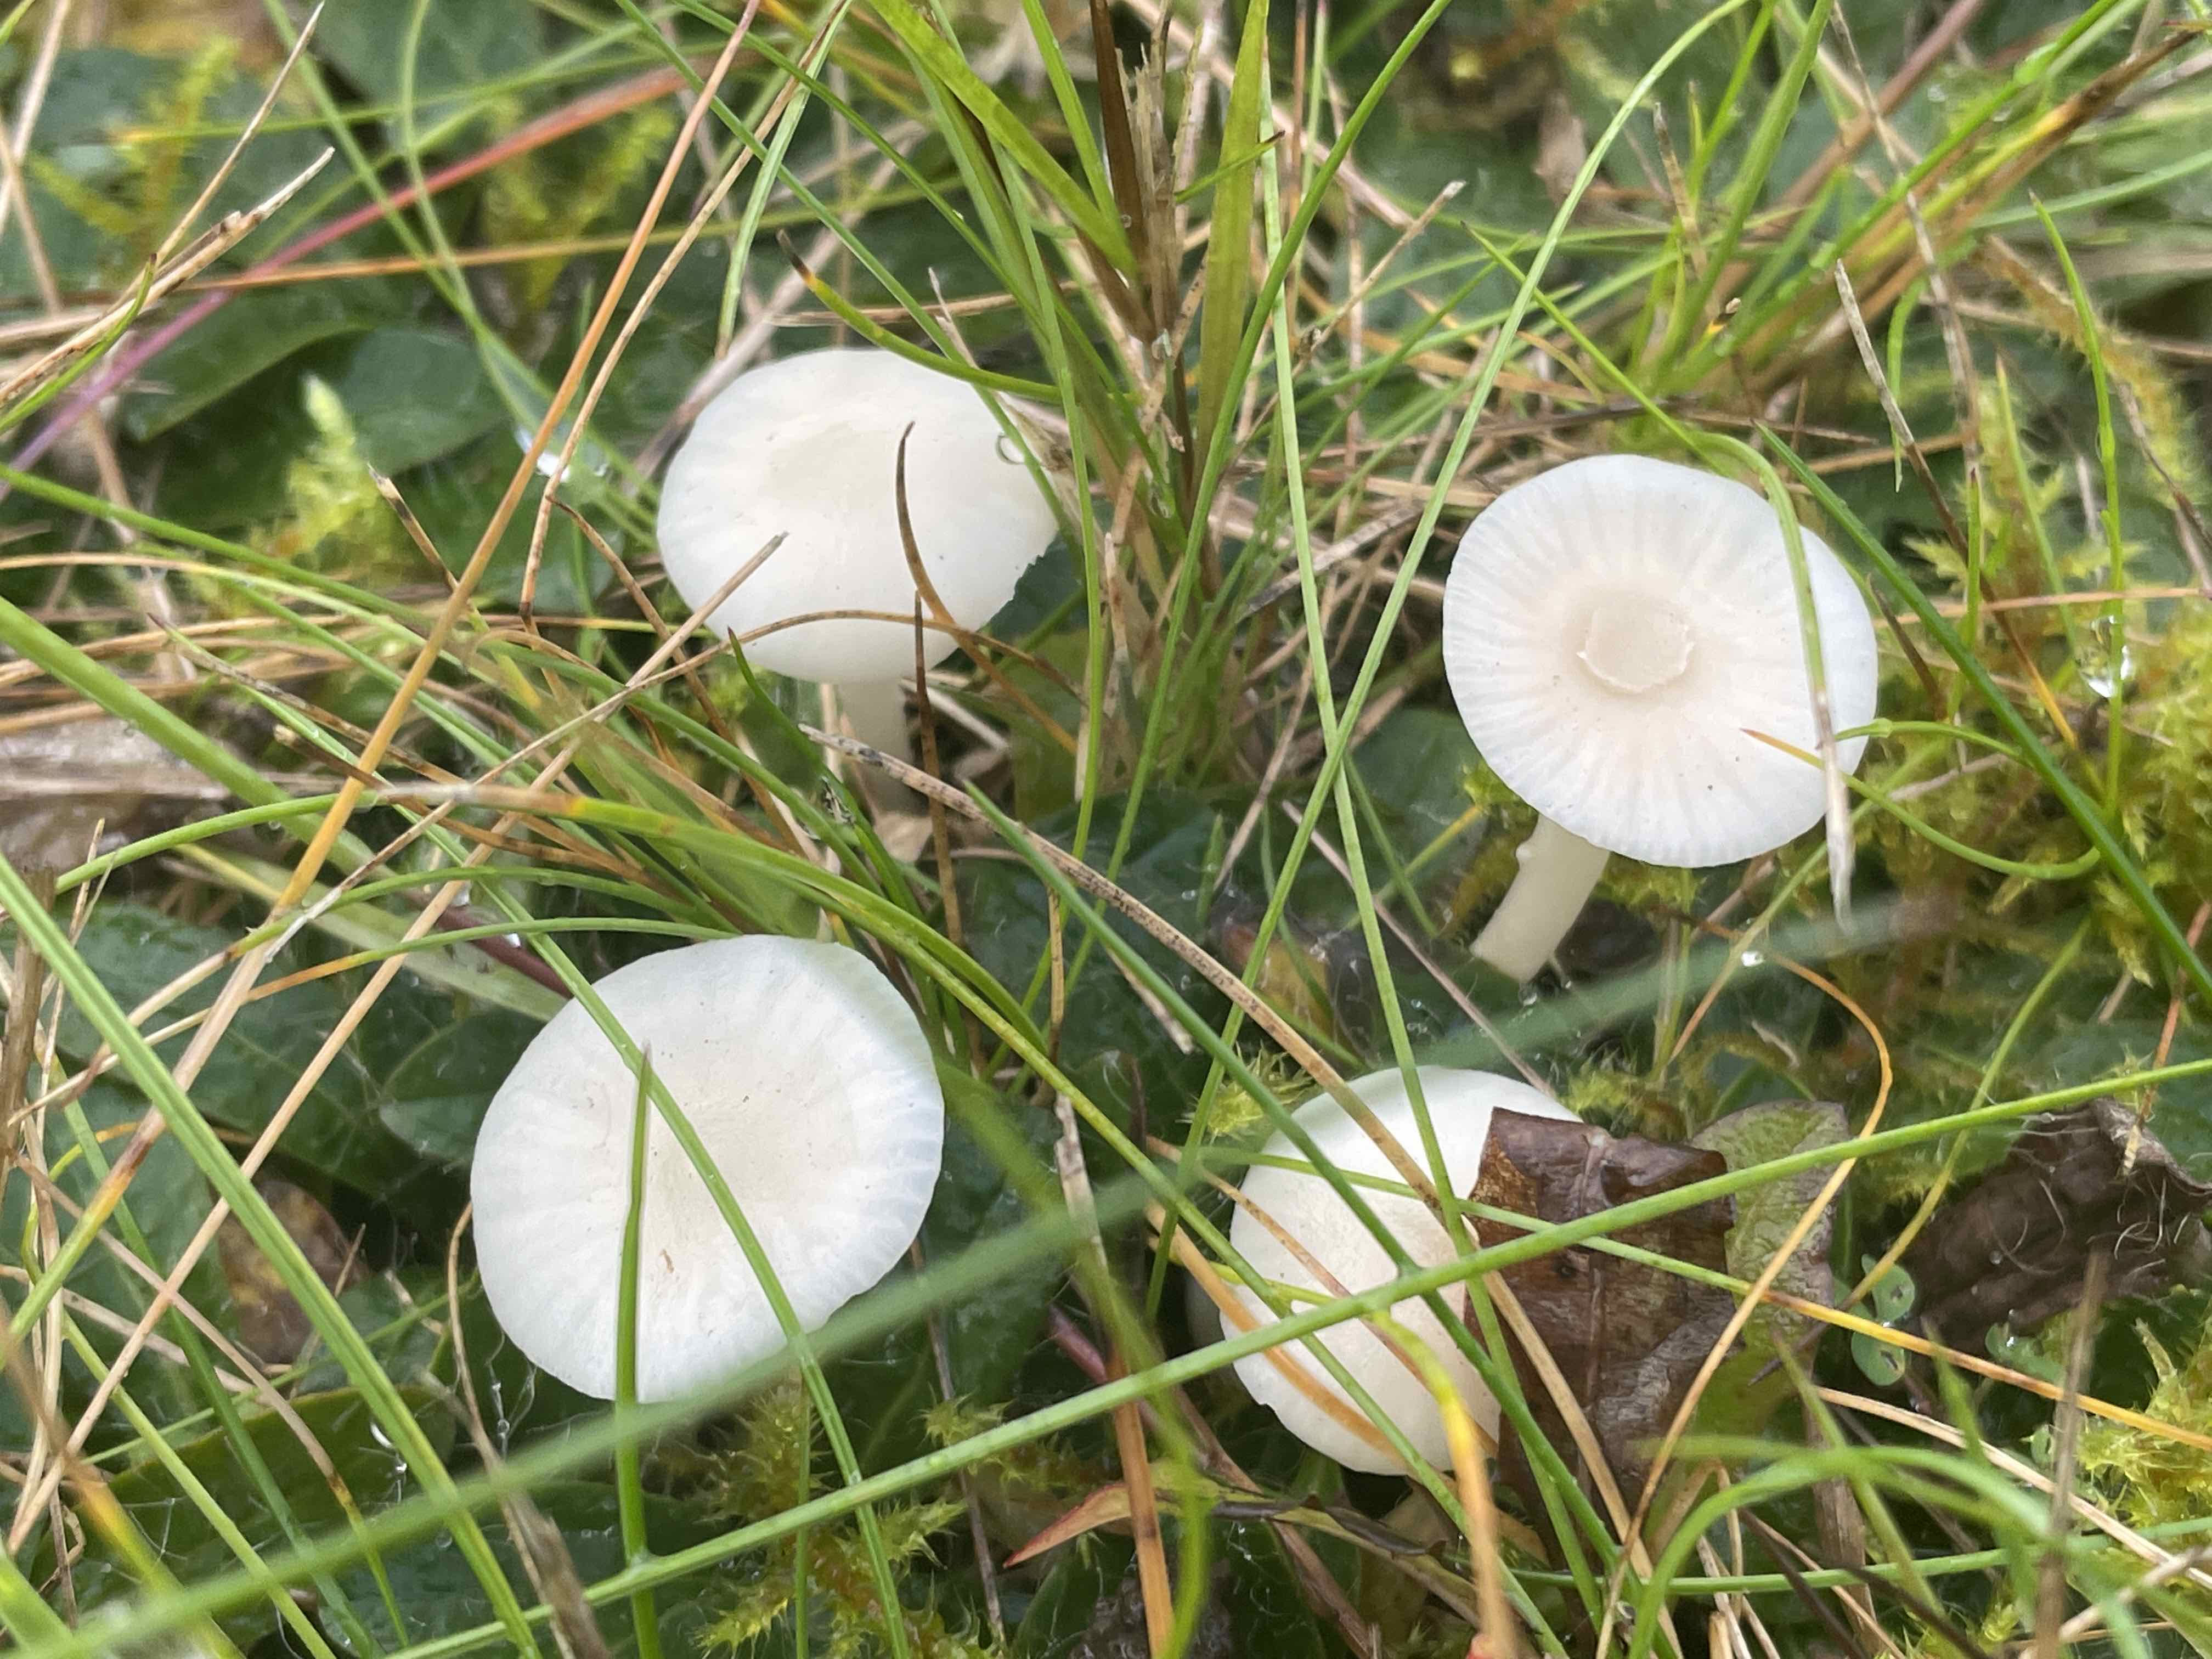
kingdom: Fungi
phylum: Basidiomycota
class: Agaricomycetes
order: Agaricales
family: Hygrophoraceae
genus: Cuphophyllus
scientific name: Cuphophyllus virgineus
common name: snehvid vokshat
